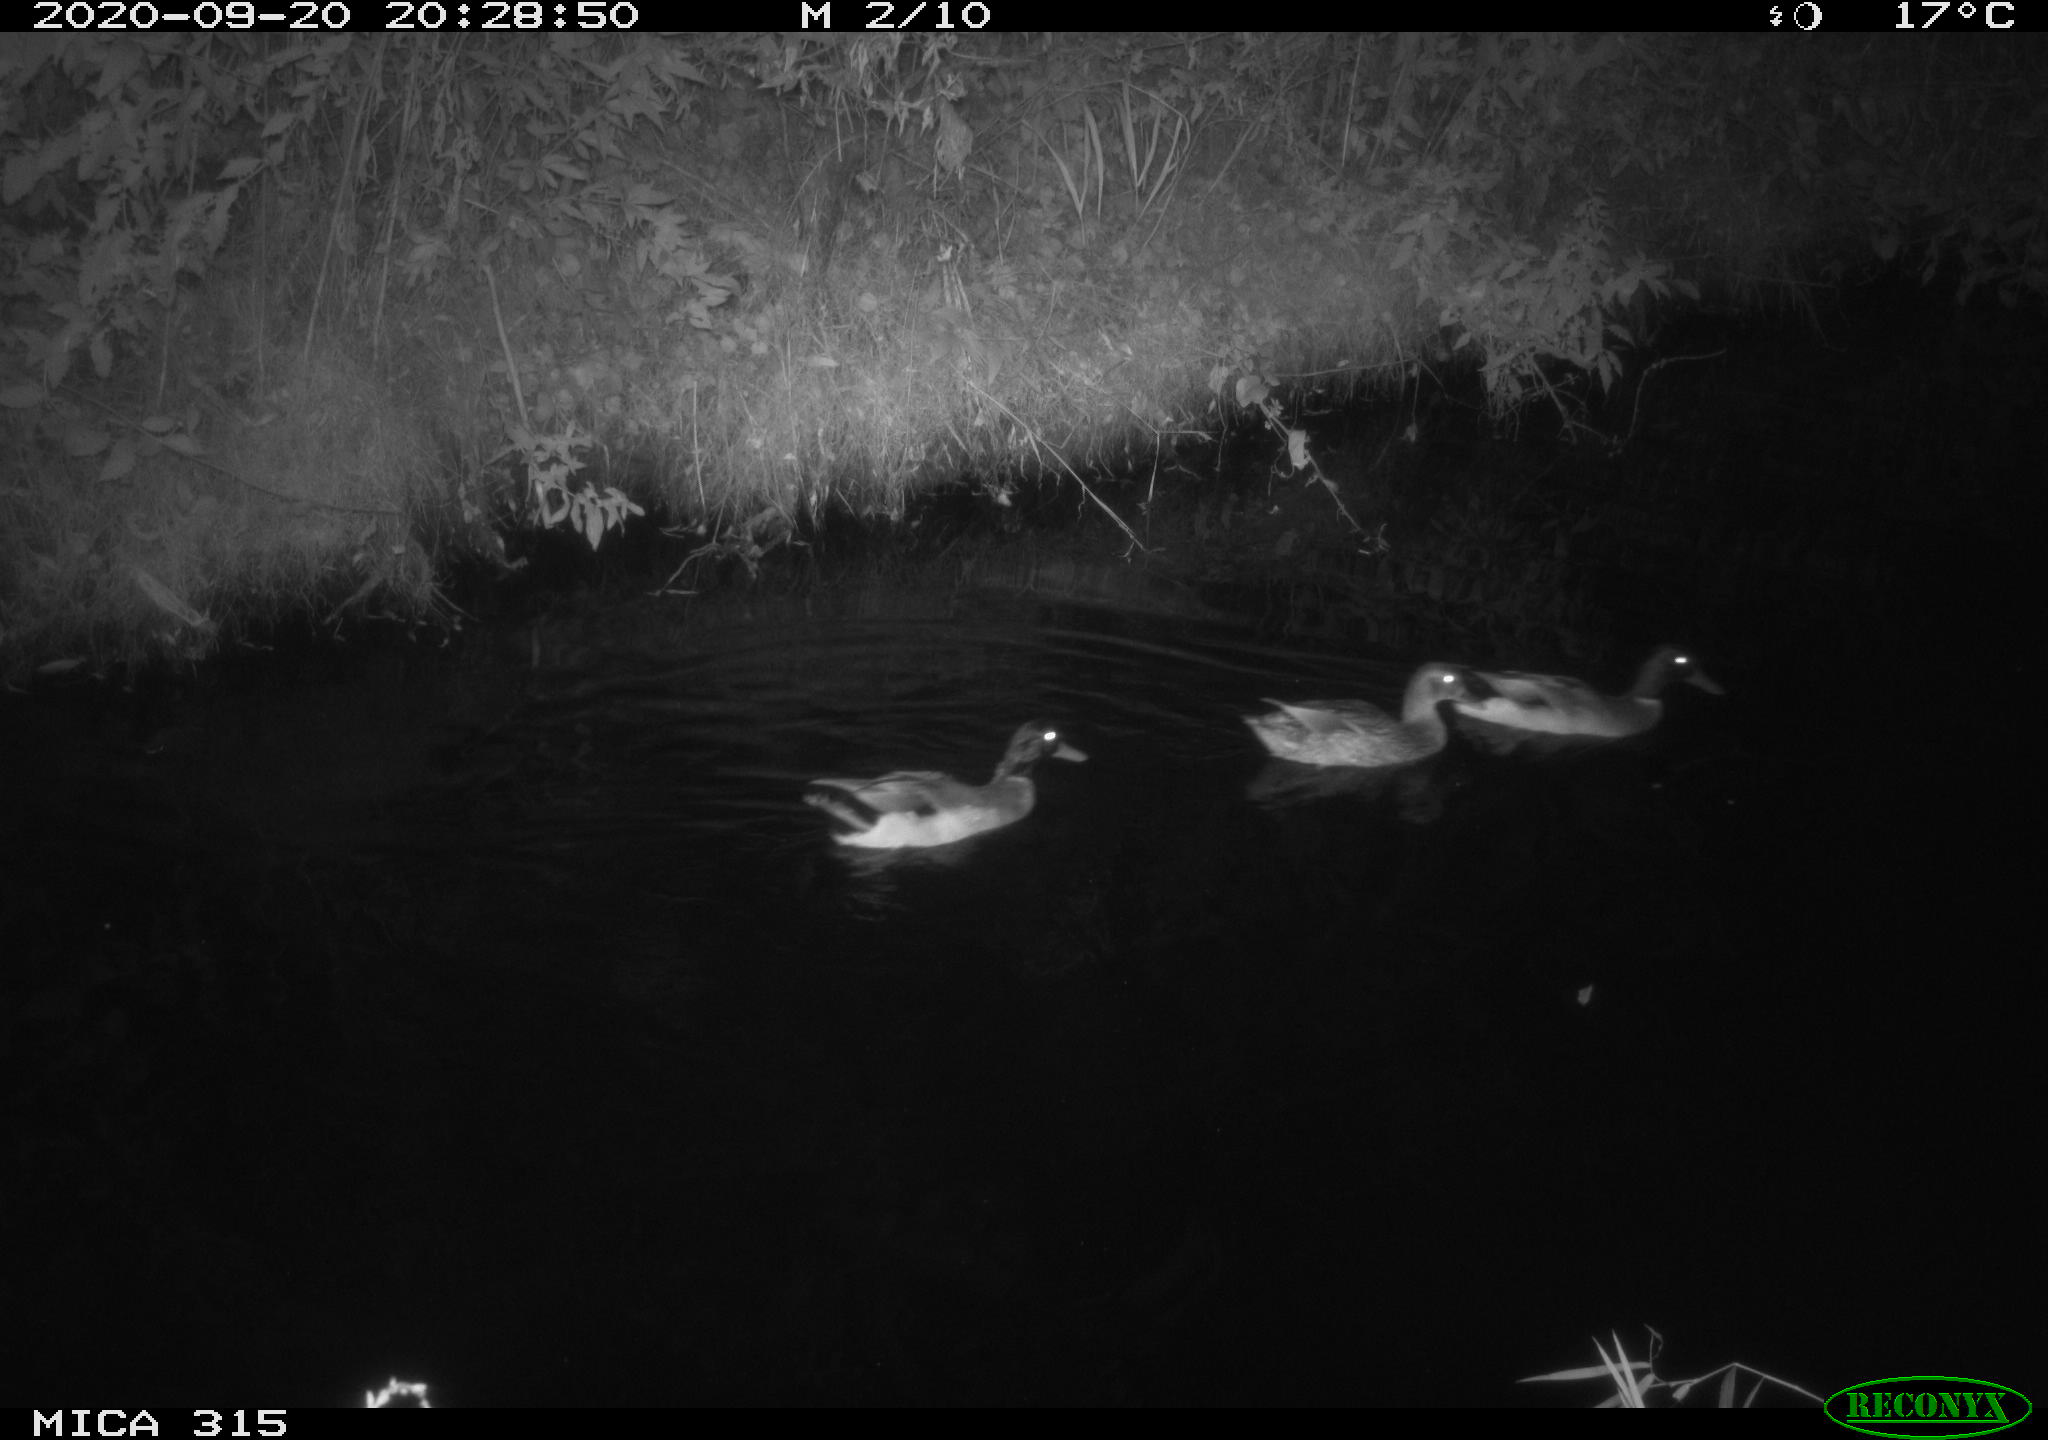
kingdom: Animalia
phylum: Chordata
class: Aves
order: Anseriformes
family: Anatidae
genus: Anas
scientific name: Anas platyrhynchos
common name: Mallard
